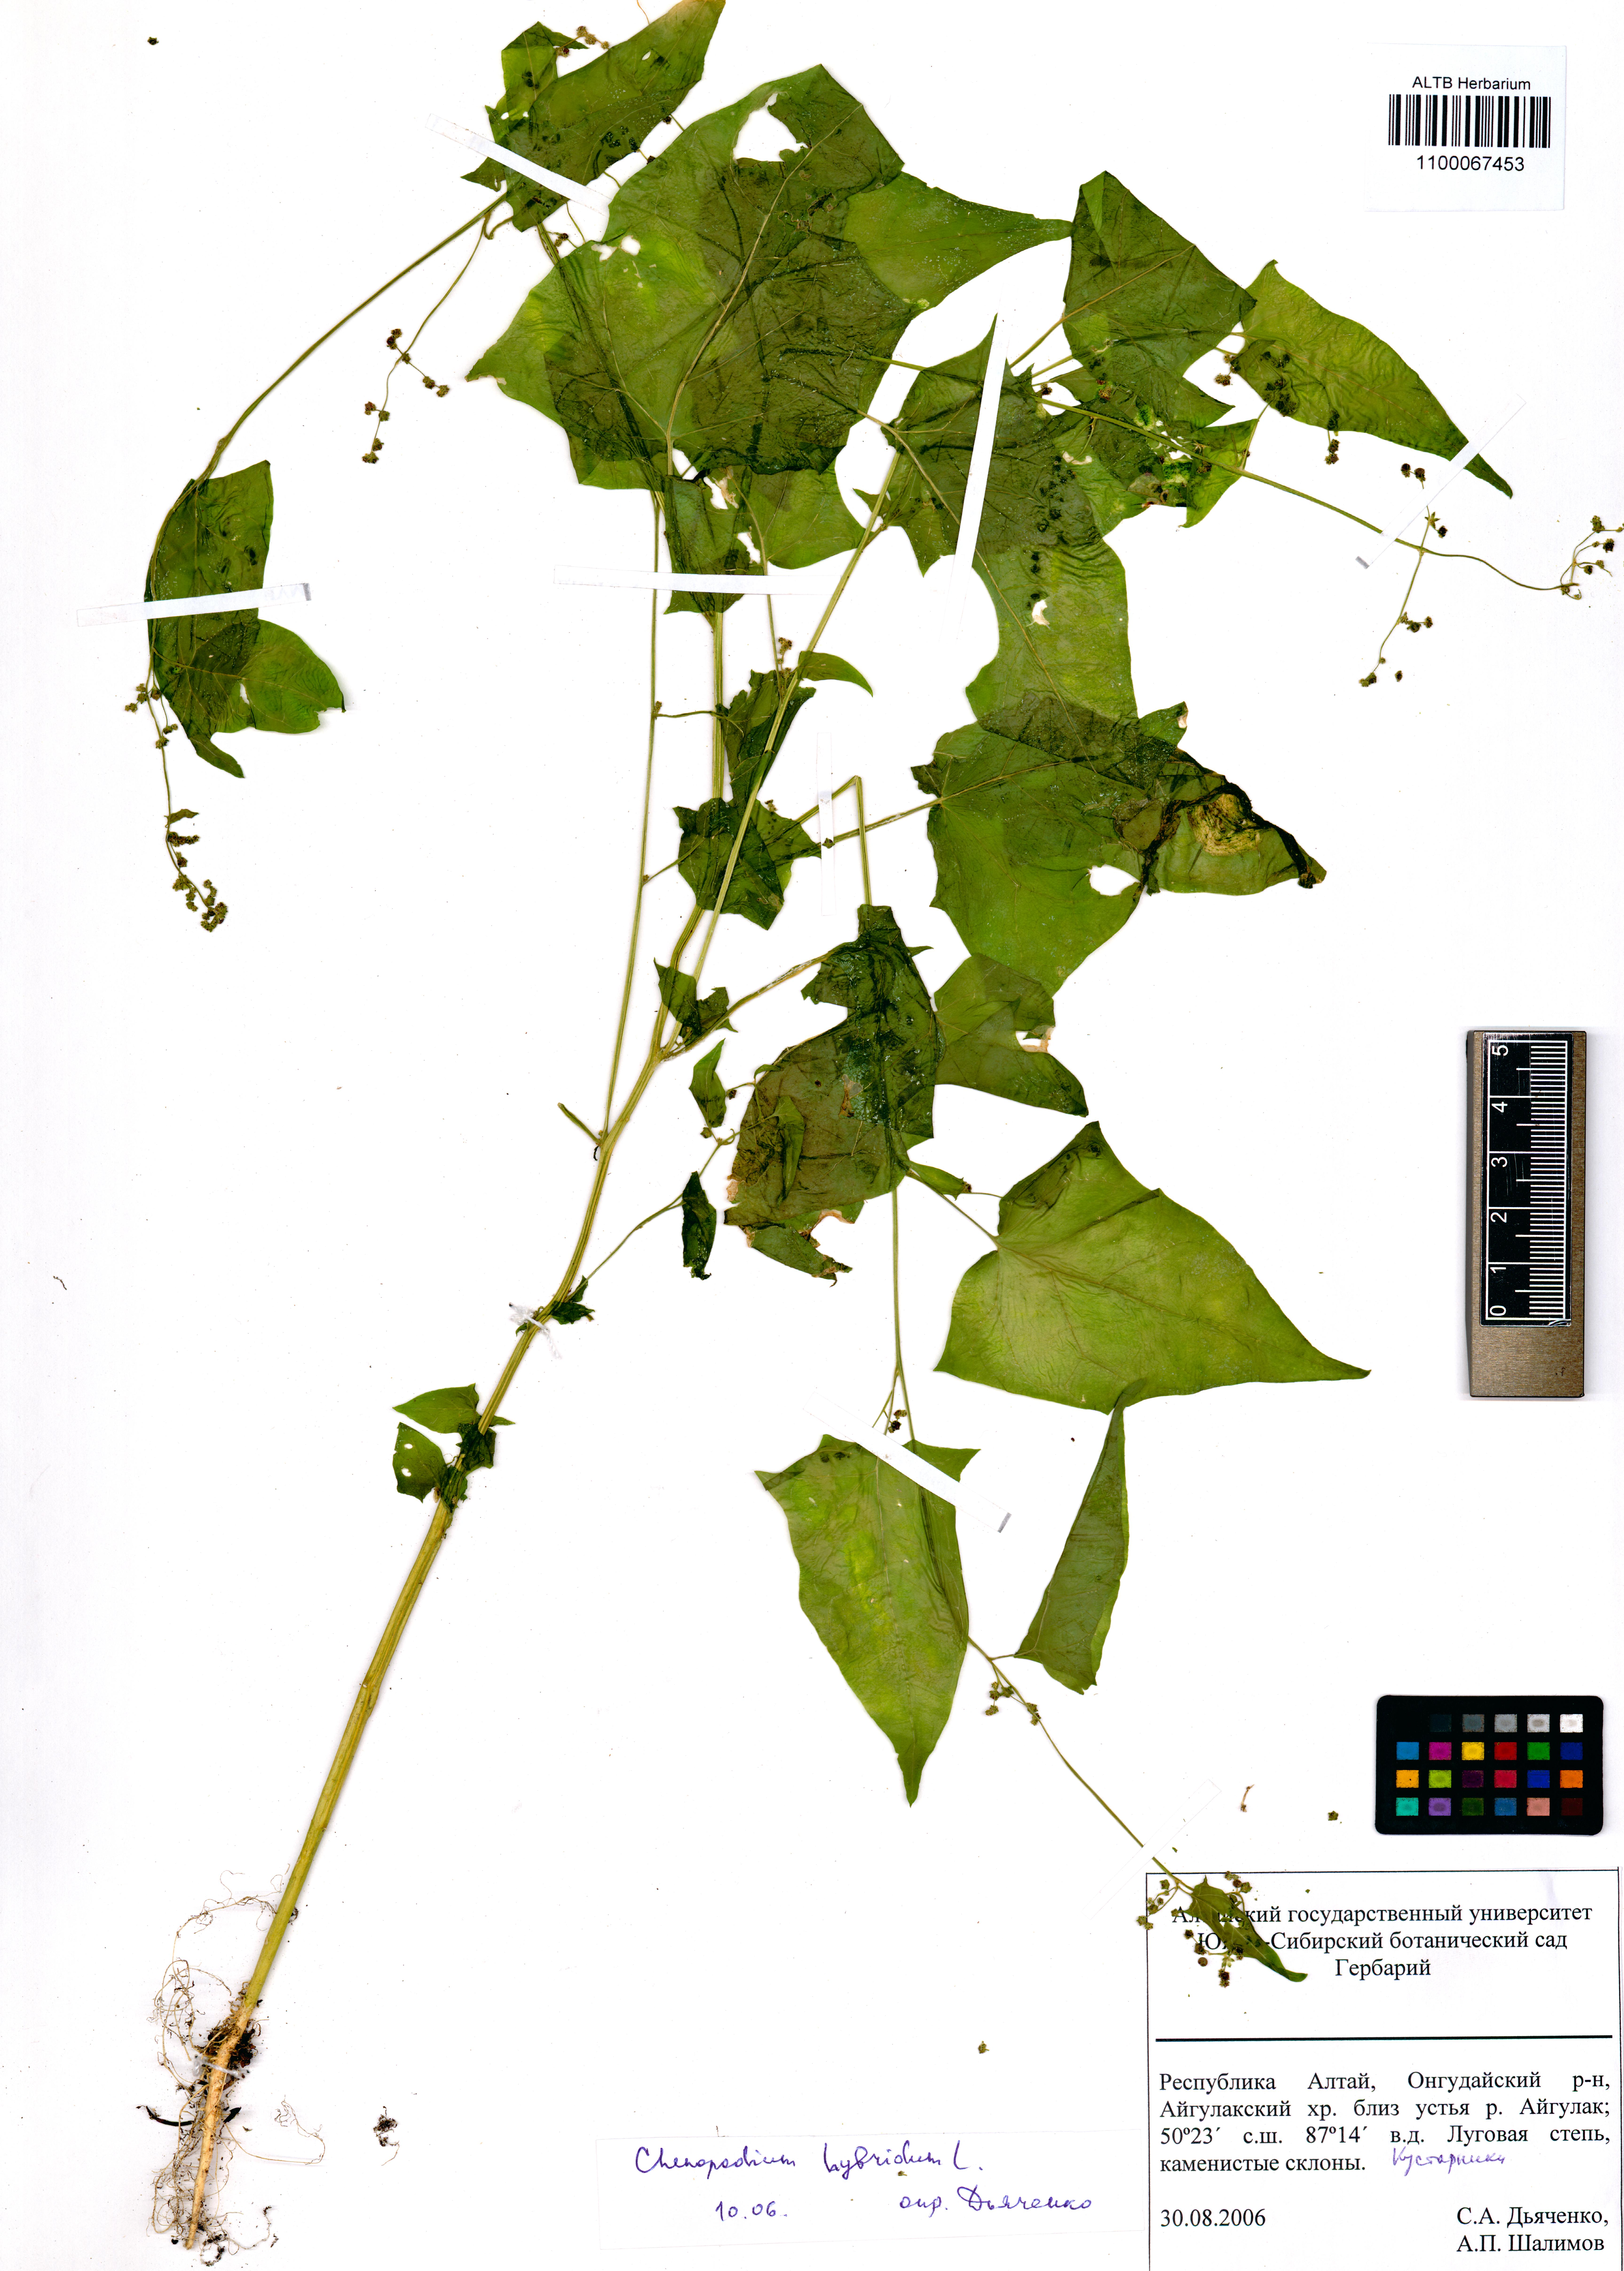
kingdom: Plantae
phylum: Tracheophyta
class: Magnoliopsida
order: Caryophyllales
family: Amaranthaceae
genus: Chenopodiastrum
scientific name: Chenopodiastrum hybridum
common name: Mapleleaf goosefoot
